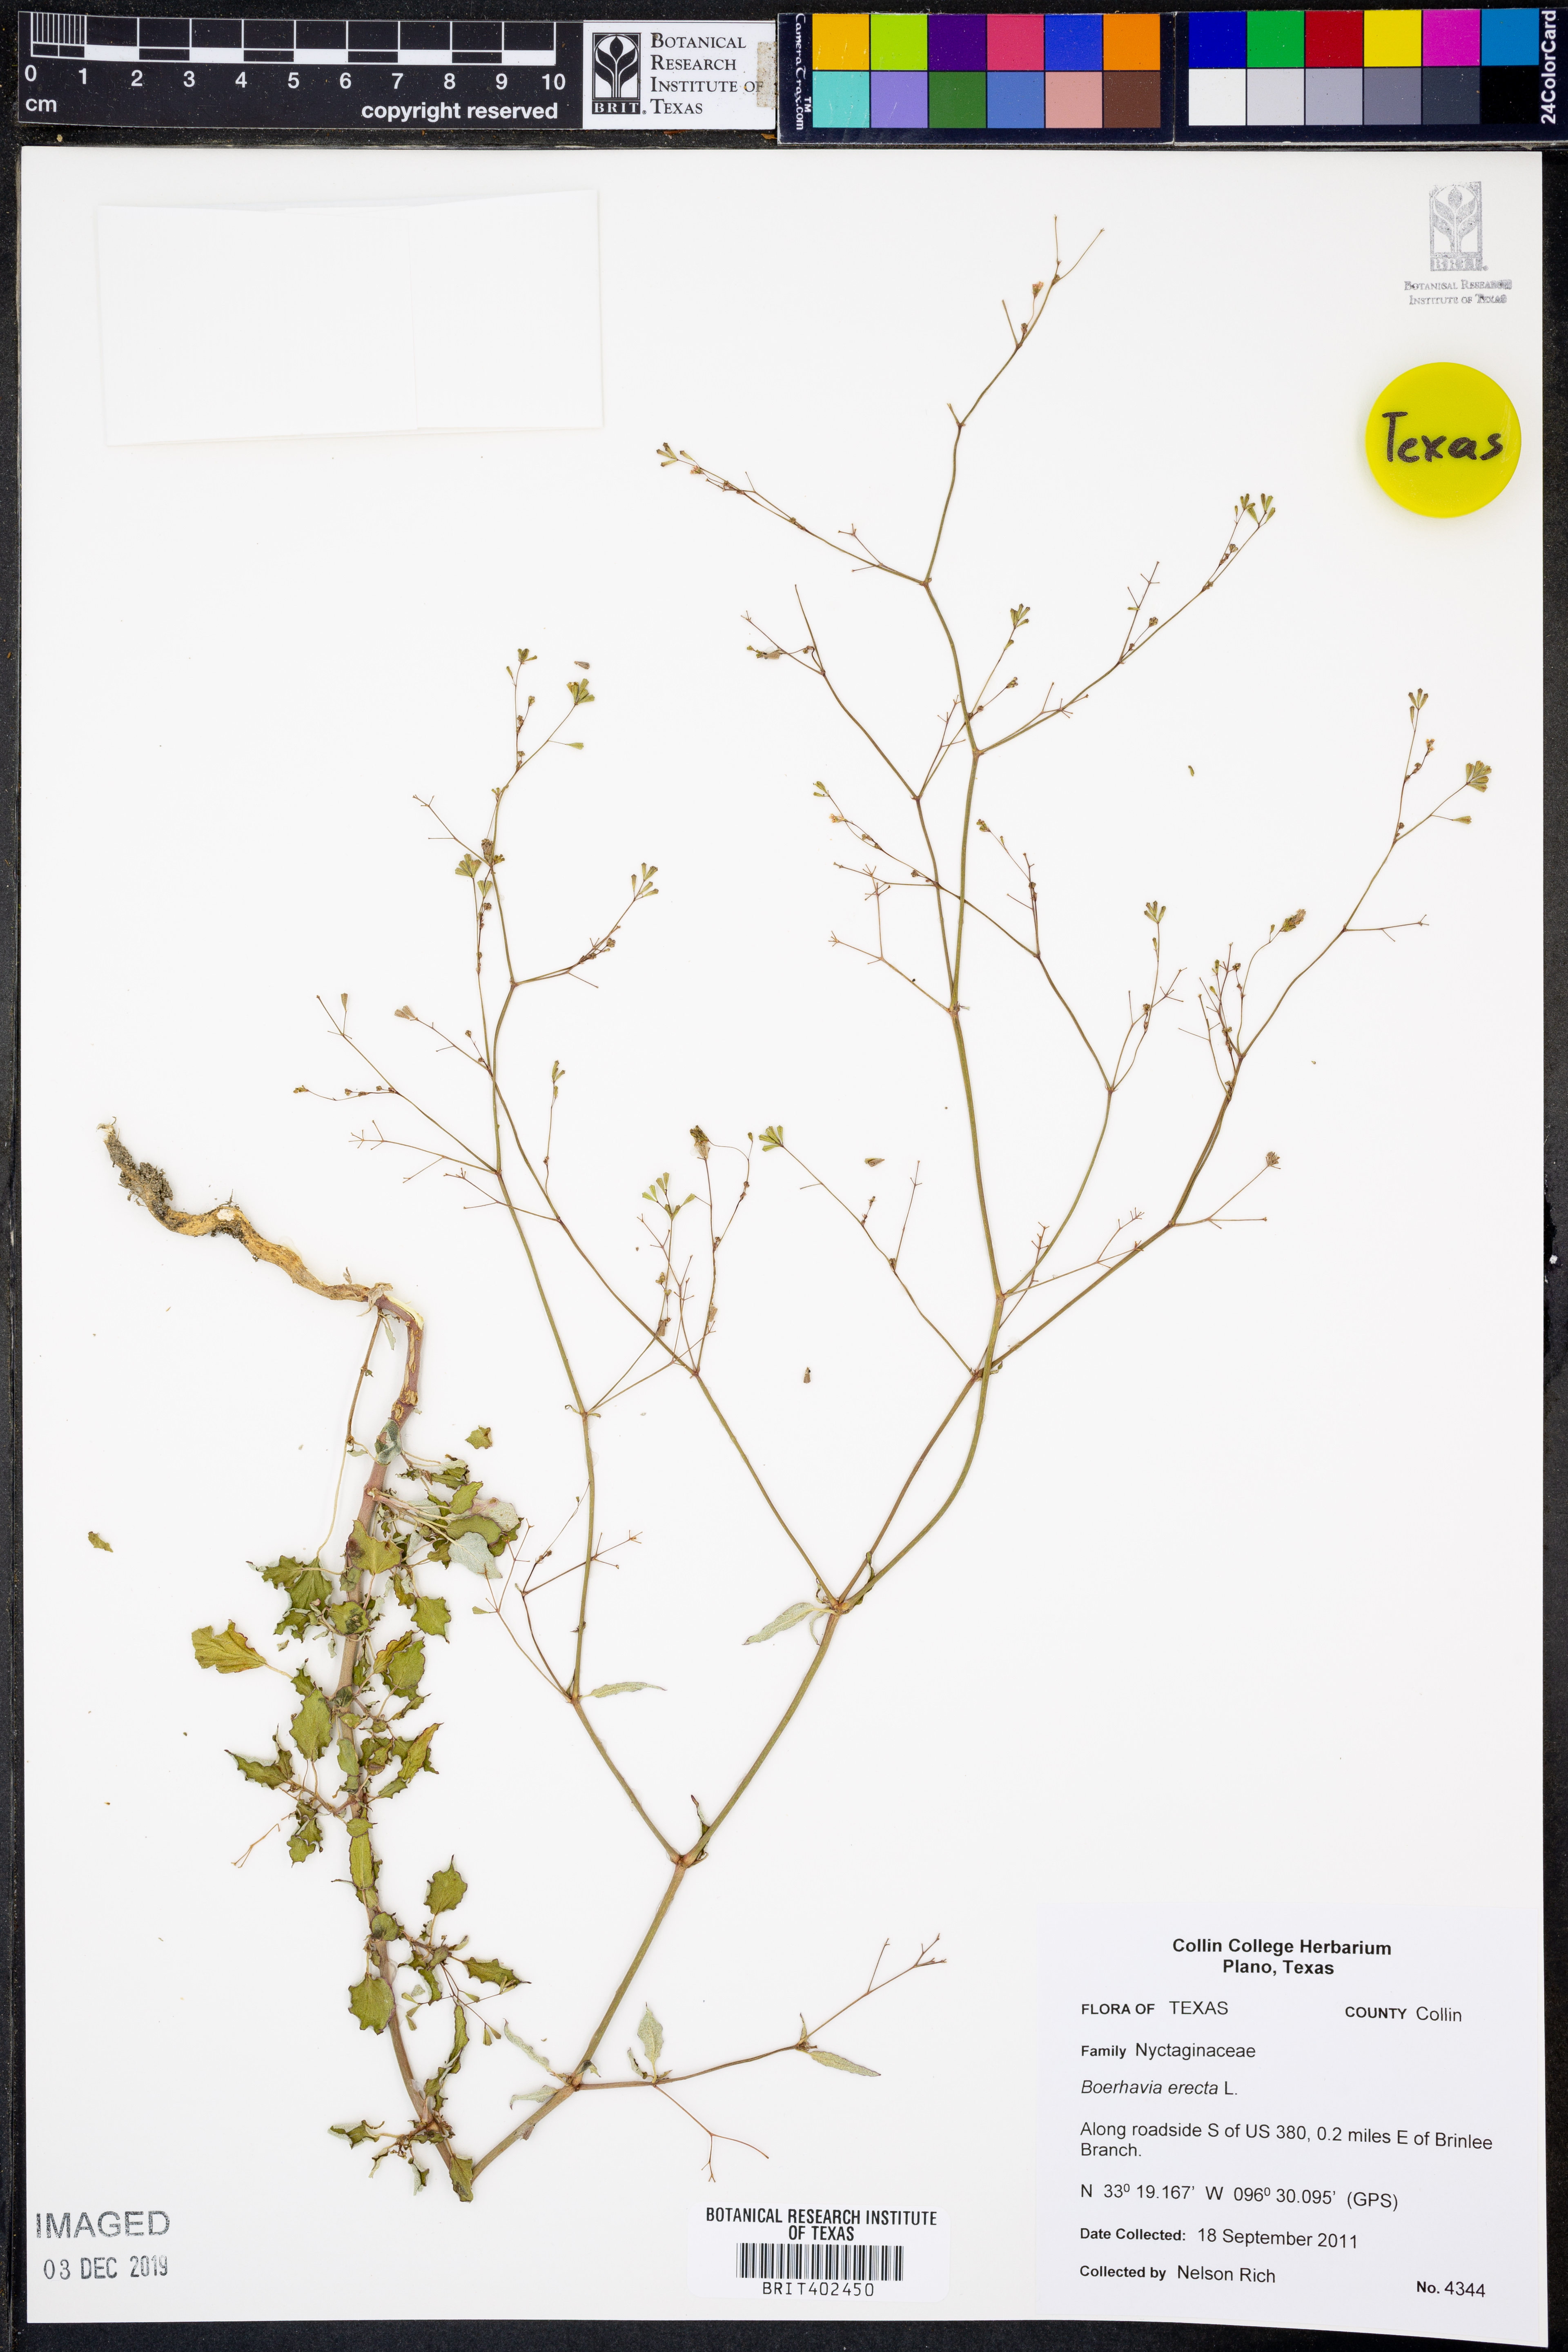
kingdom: Plantae
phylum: Tracheophyta
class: Magnoliopsida
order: Caryophyllales
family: Nyctaginaceae
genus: Boerhavia
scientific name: Boerhavia erecta
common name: Erect spiderling
